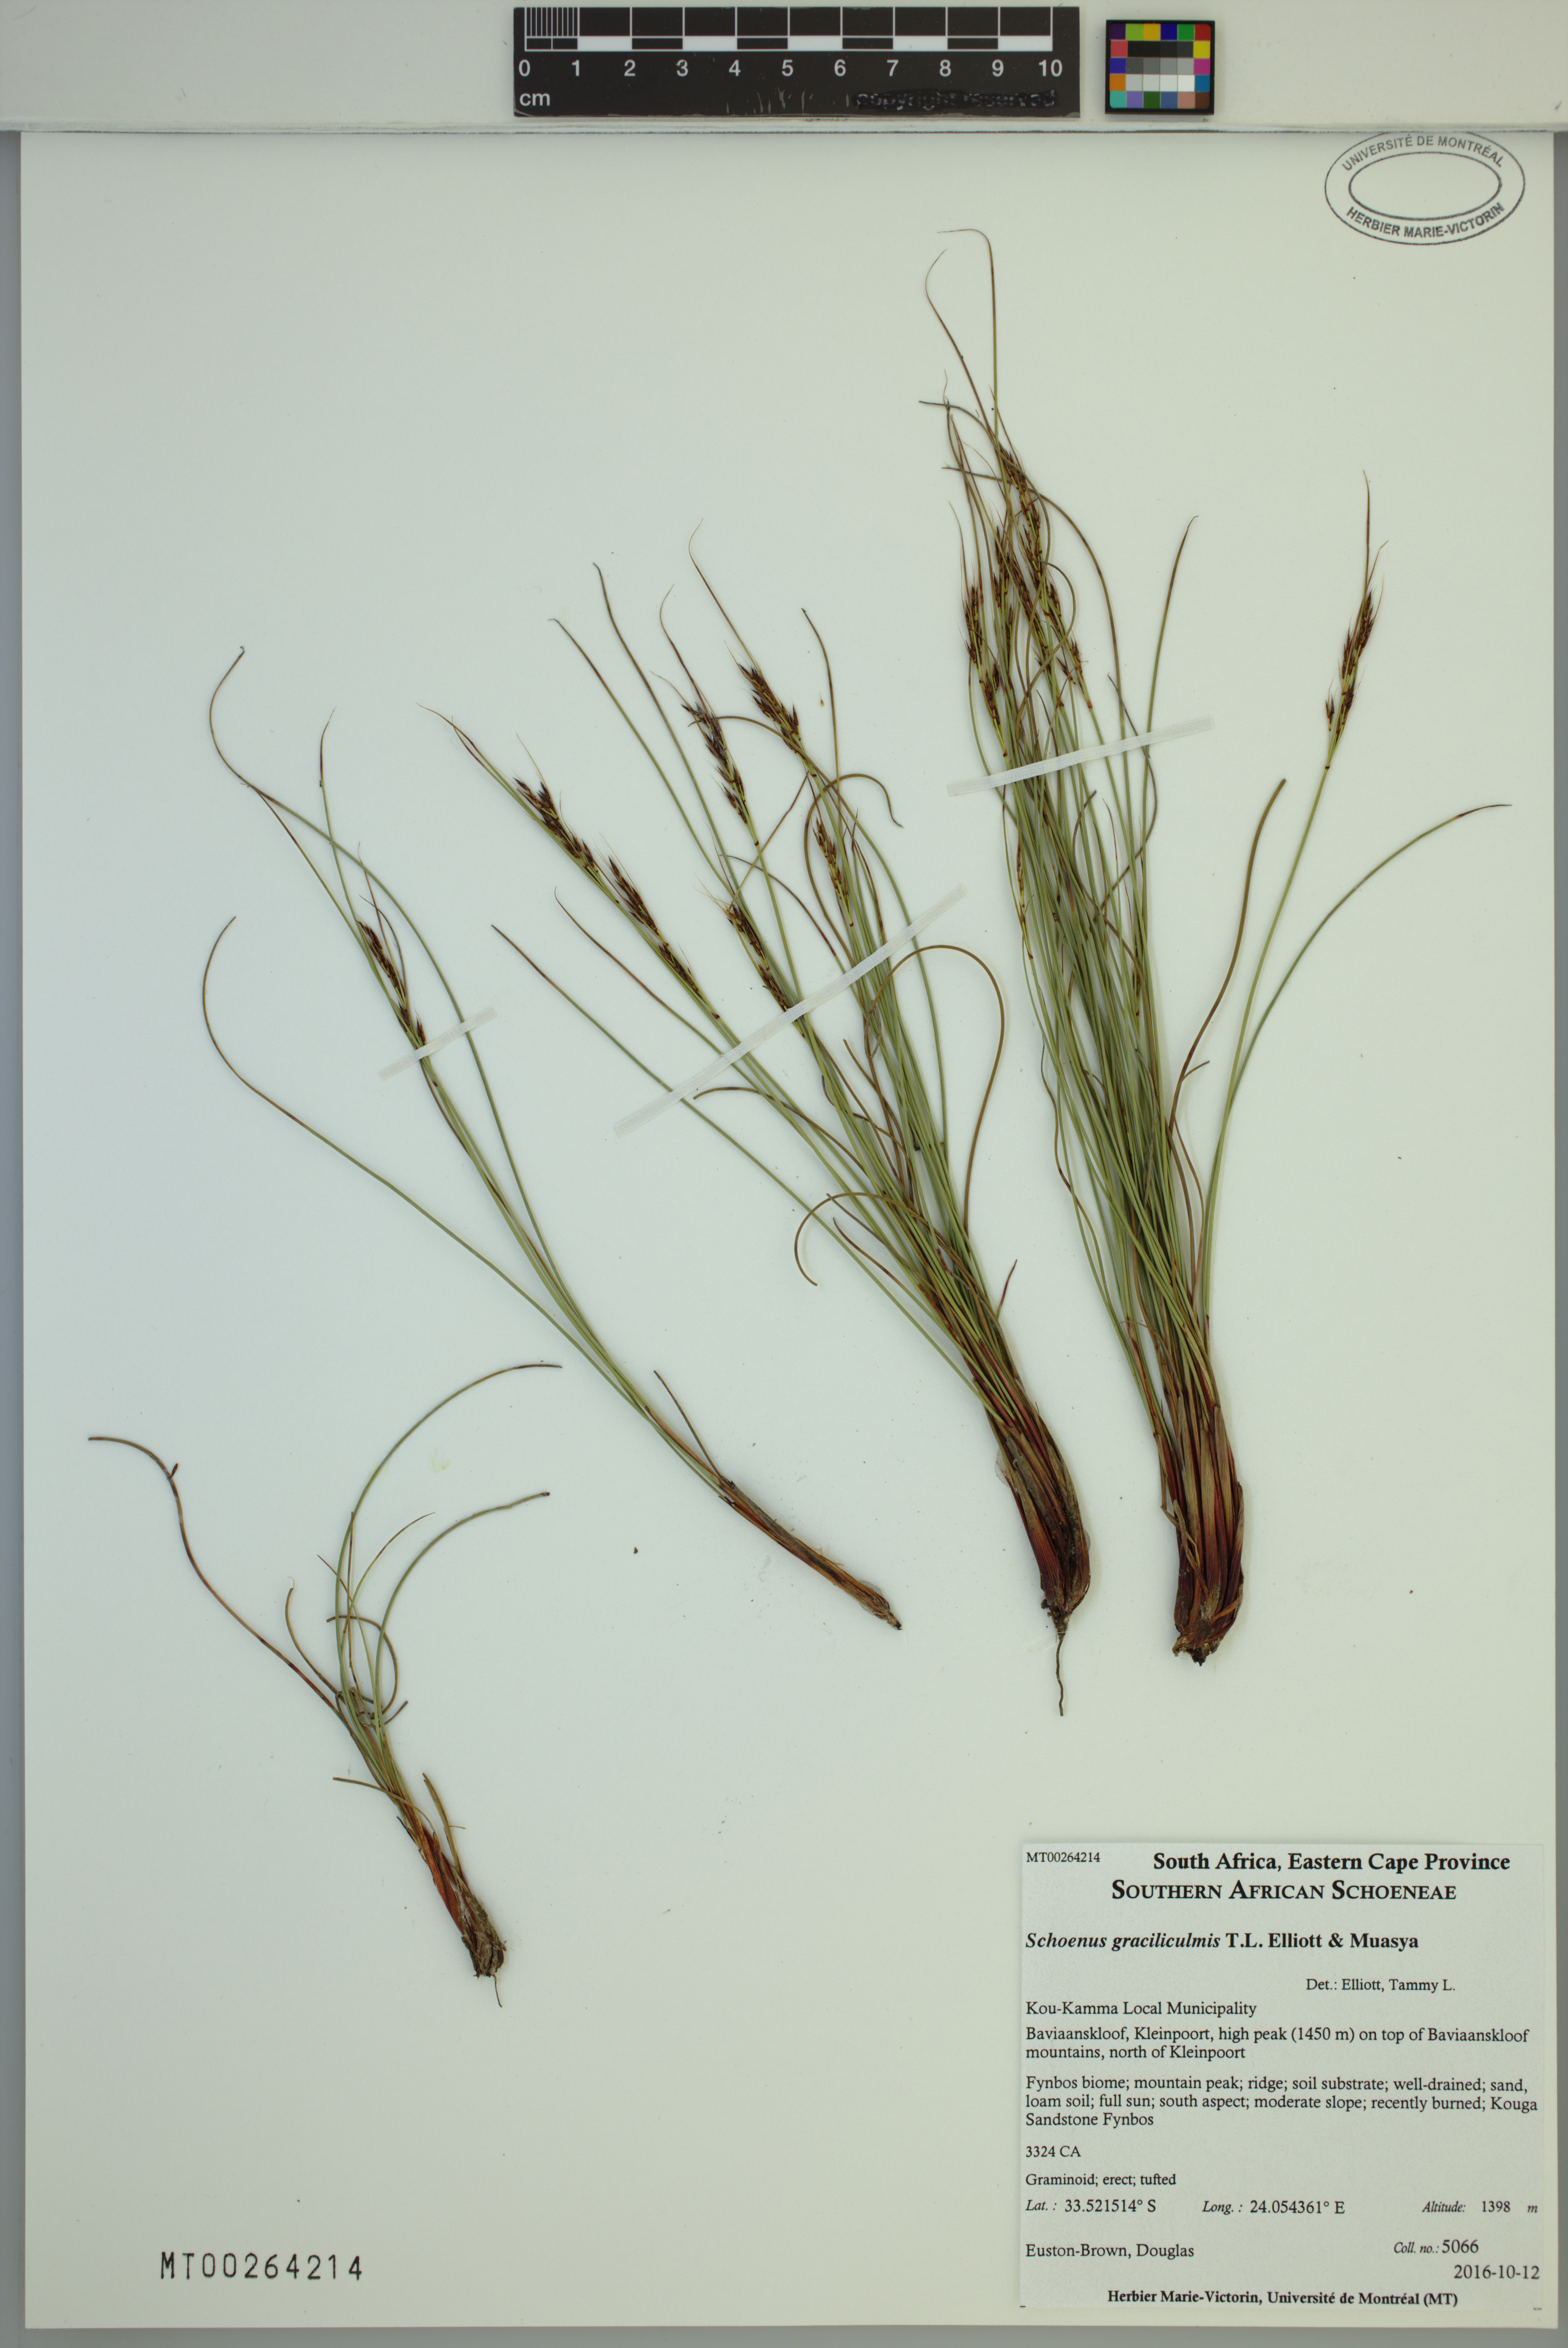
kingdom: Plantae
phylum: Tracheophyta
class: Liliopsida
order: Poales
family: Cyperaceae
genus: Schoenus
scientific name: Schoenus graciliculmis
